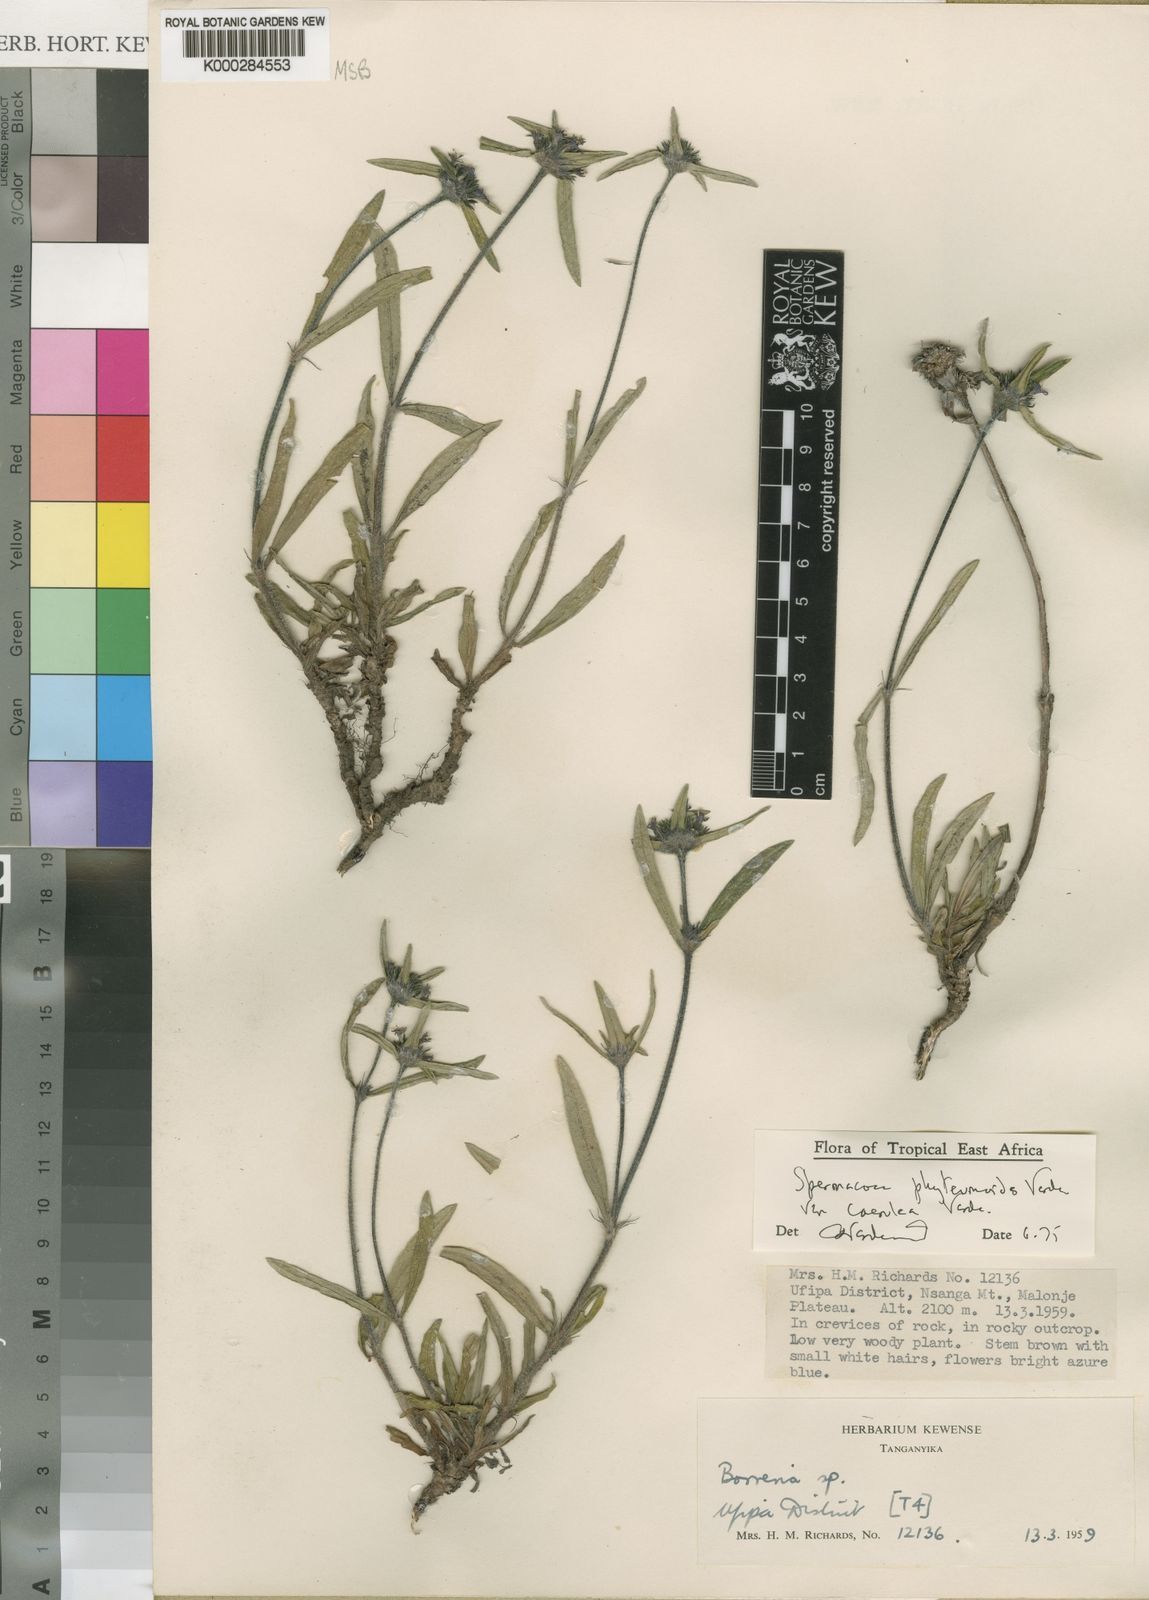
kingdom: Plantae
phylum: Tracheophyta
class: Magnoliopsida
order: Gentianales
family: Rubiaceae
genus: Spermacoce
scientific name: Spermacoce phyteumoides
